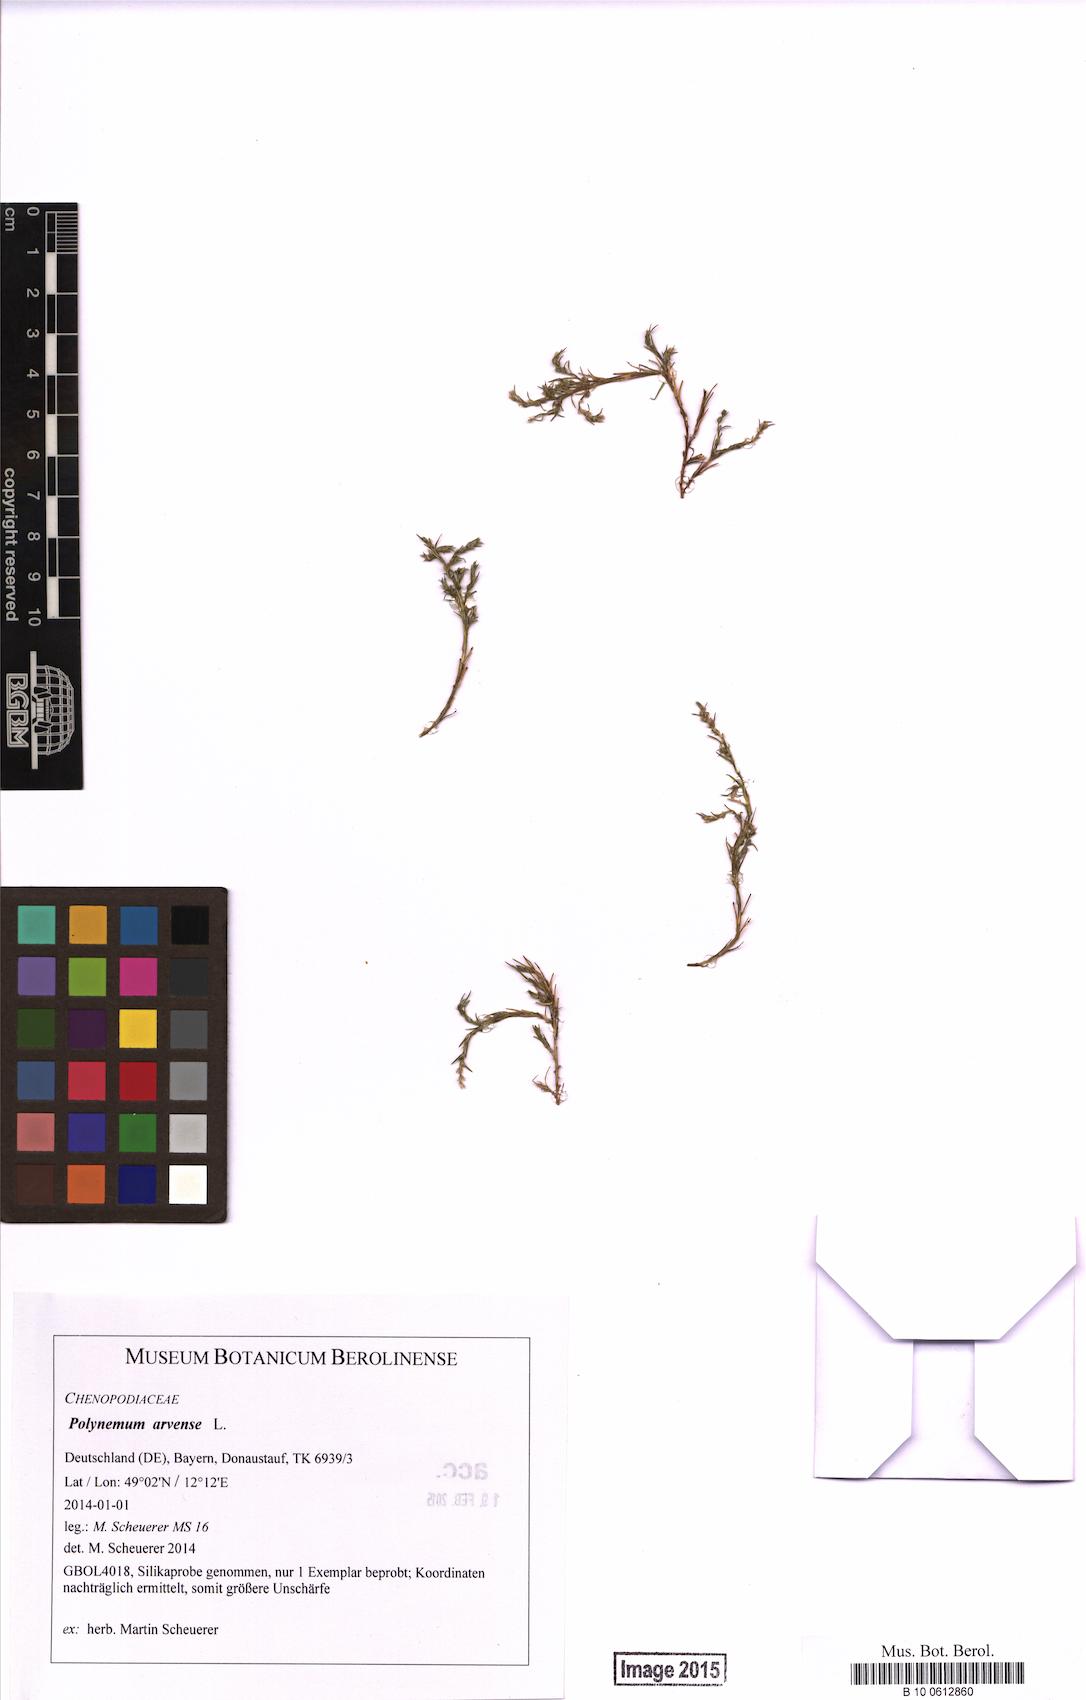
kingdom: Plantae
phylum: Tracheophyta
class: Magnoliopsida
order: Caryophyllales
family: Amaranthaceae
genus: Polycnemum
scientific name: Polycnemum arvense
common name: Soft needleleaf
